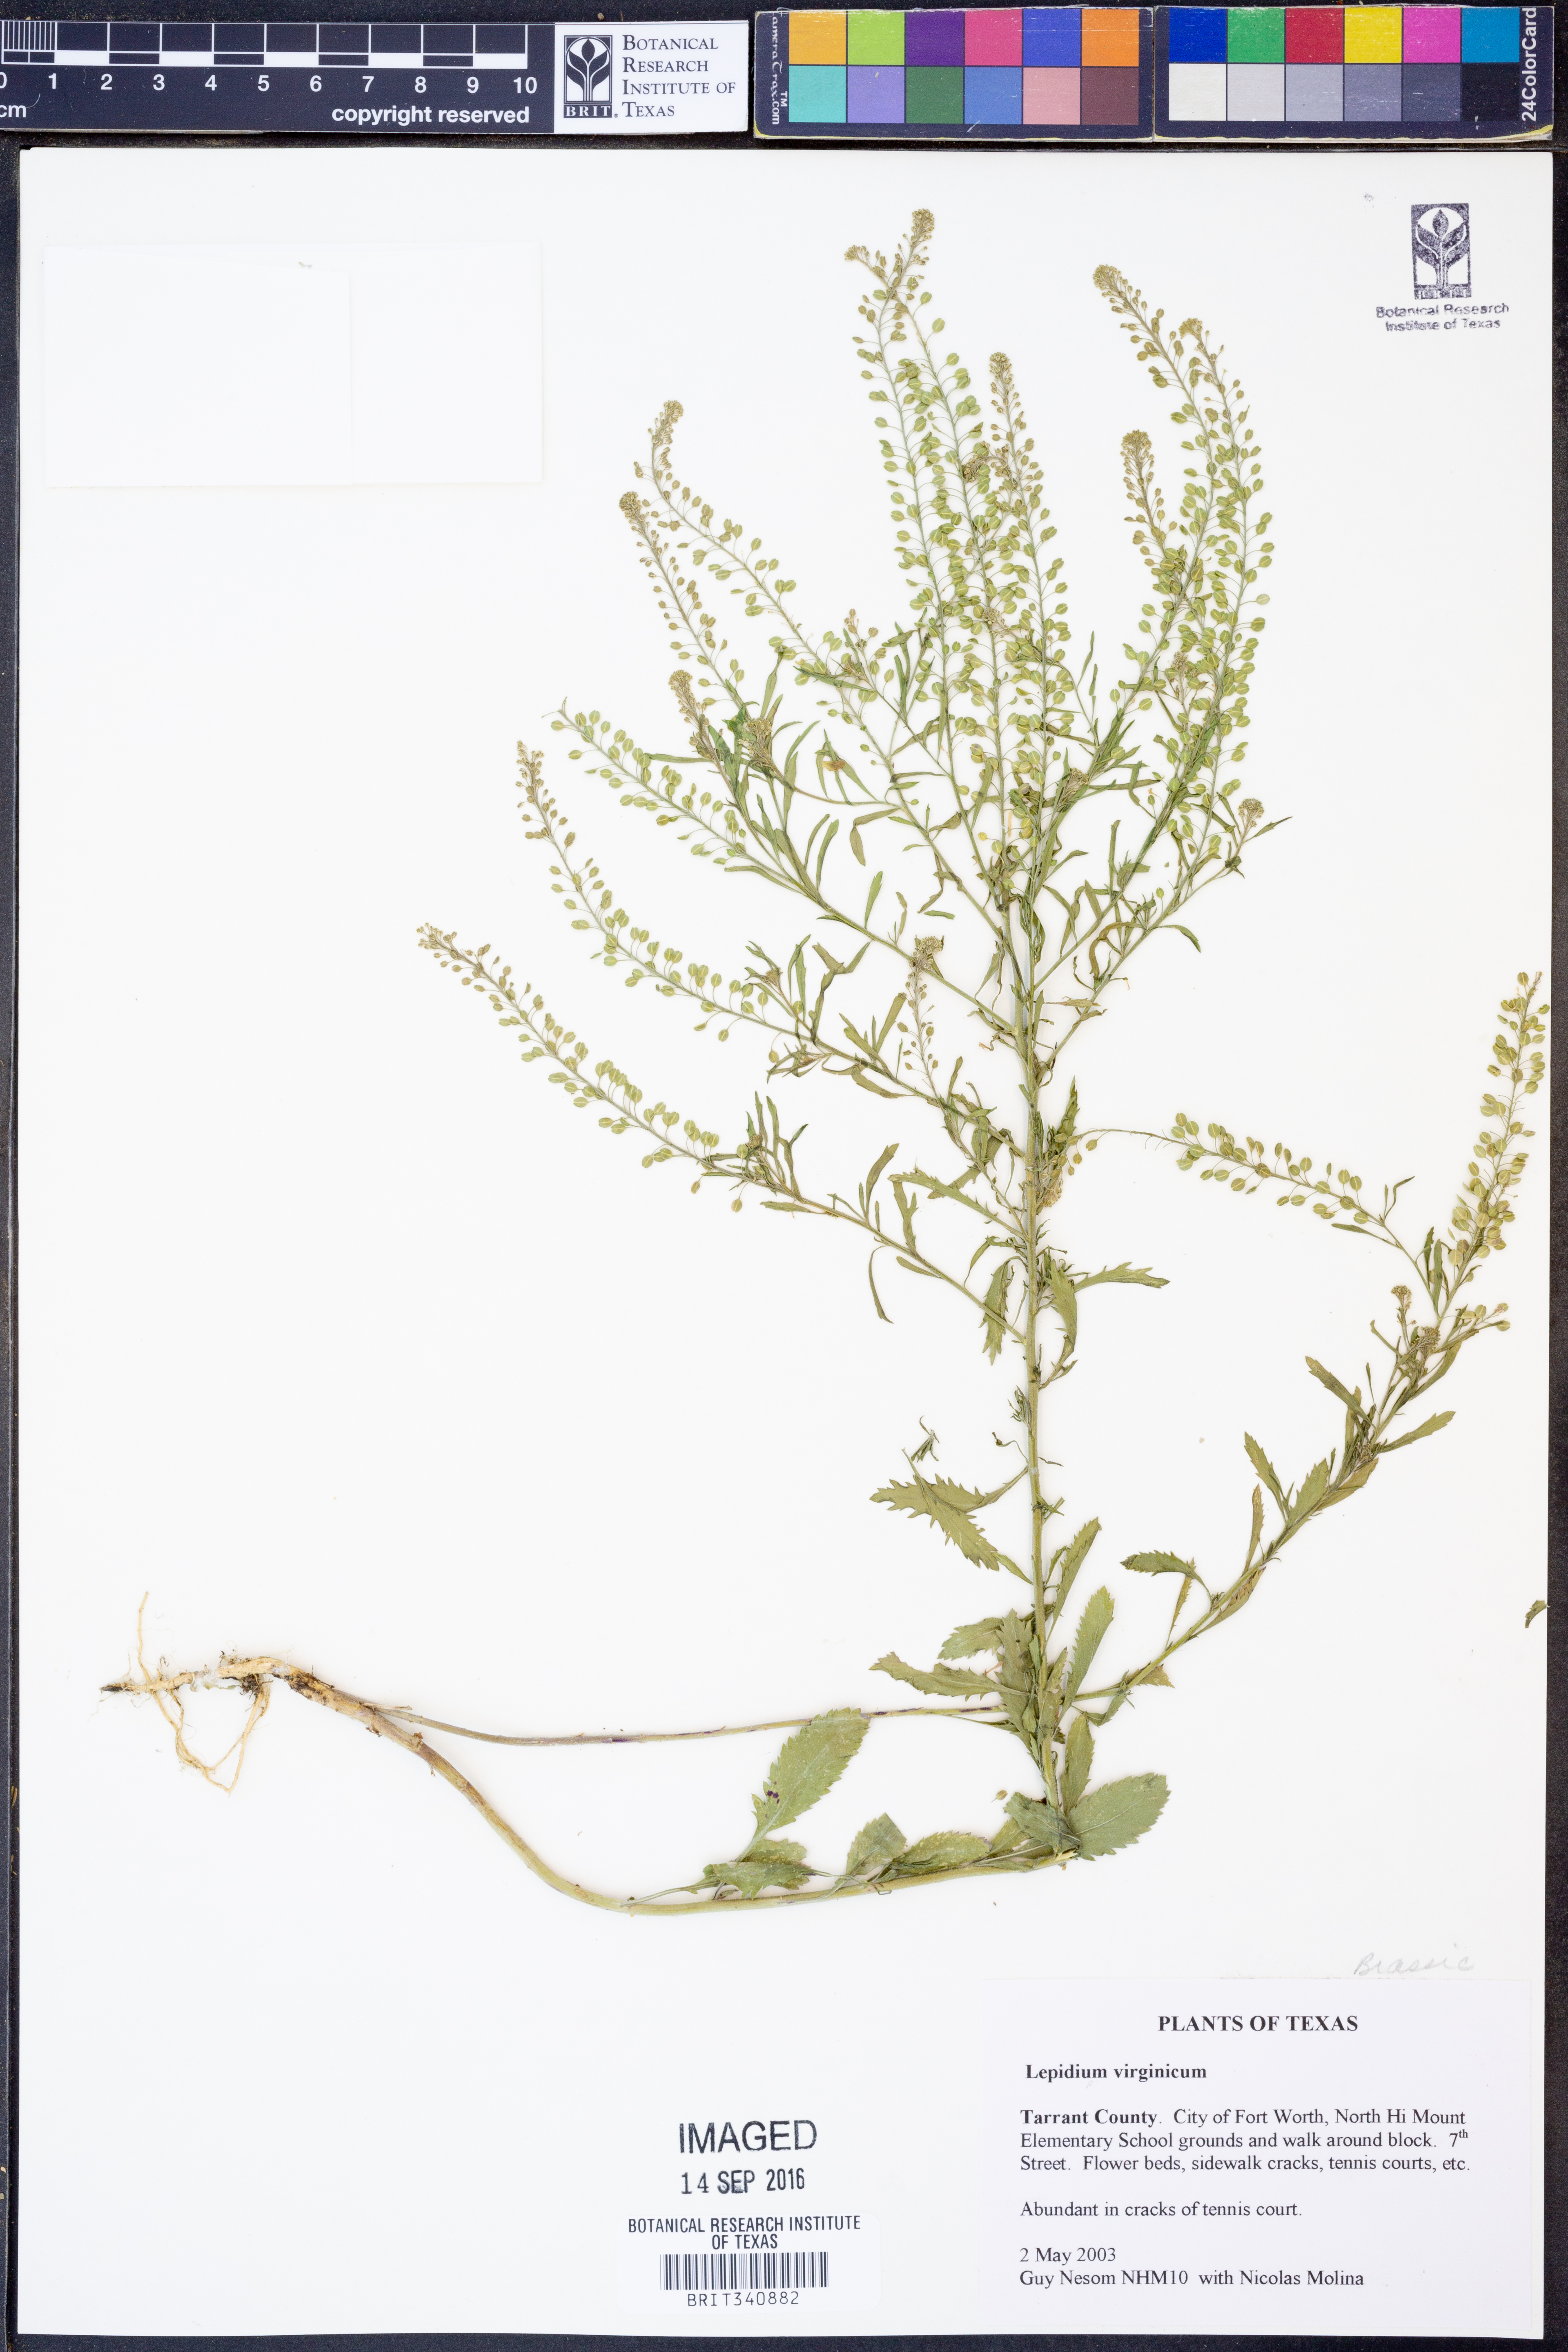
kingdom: Plantae
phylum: Tracheophyta
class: Magnoliopsida
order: Brassicales
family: Brassicaceae
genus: Lepidium
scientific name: Lepidium virginicum
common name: Least pepperwort
